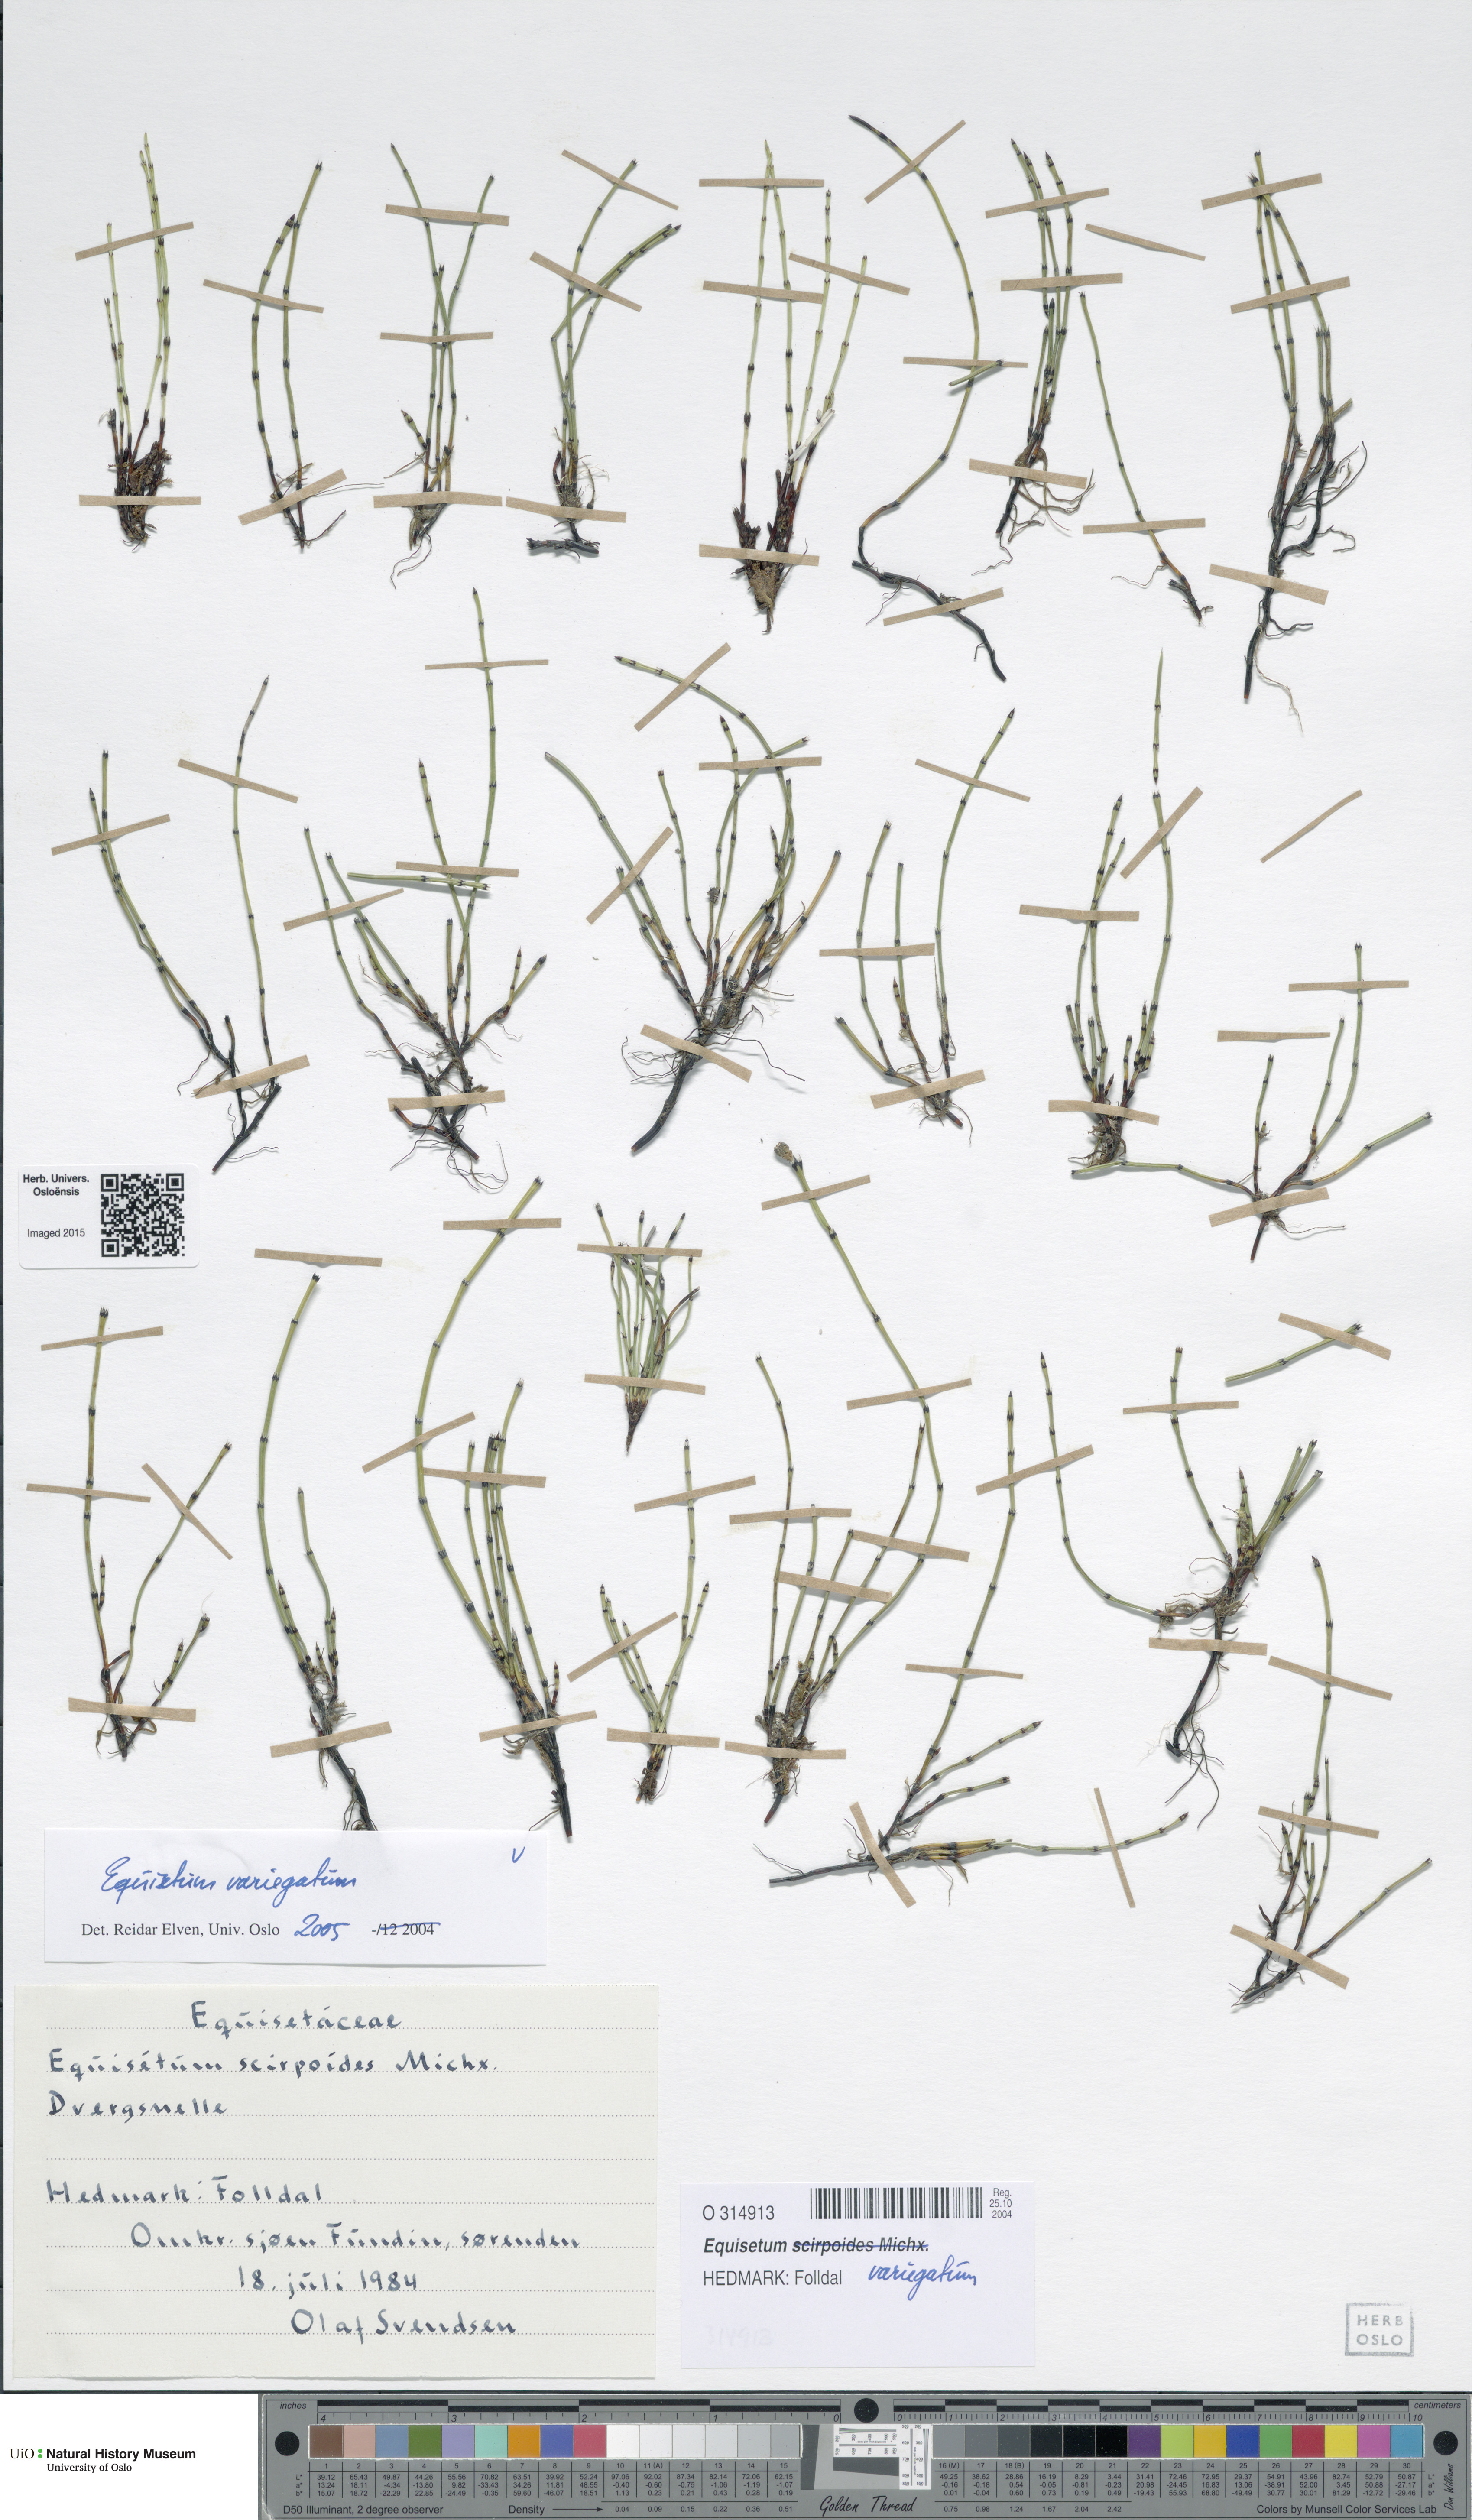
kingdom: Plantae
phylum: Tracheophyta
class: Polypodiopsida
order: Equisetales
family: Equisetaceae
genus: Equisetum
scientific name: Equisetum variegatum
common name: Variegated horsetail
